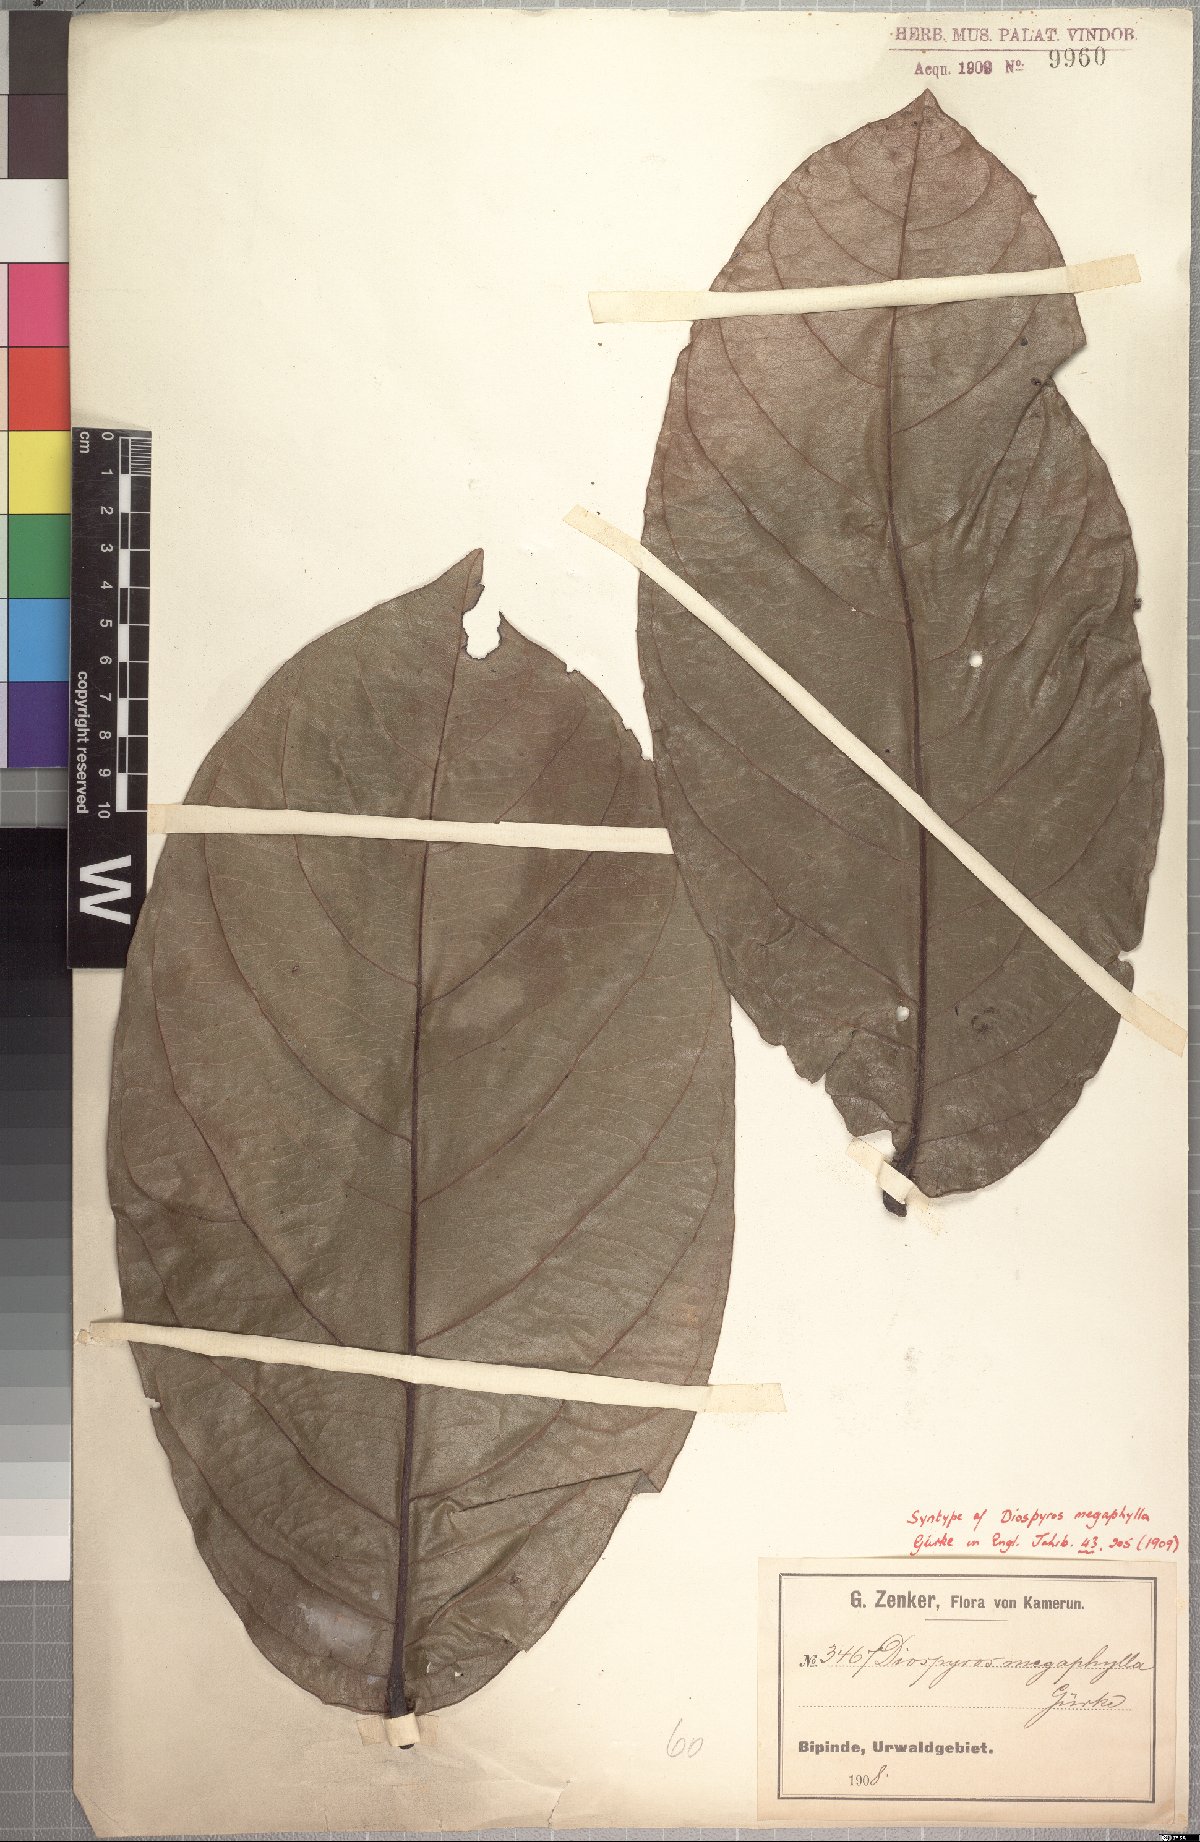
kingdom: Plantae
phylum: Tracheophyta
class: Magnoliopsida
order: Ericales
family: Ebenaceae
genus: Diospyros
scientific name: Diospyros gabunensis
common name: Flint bark tree
